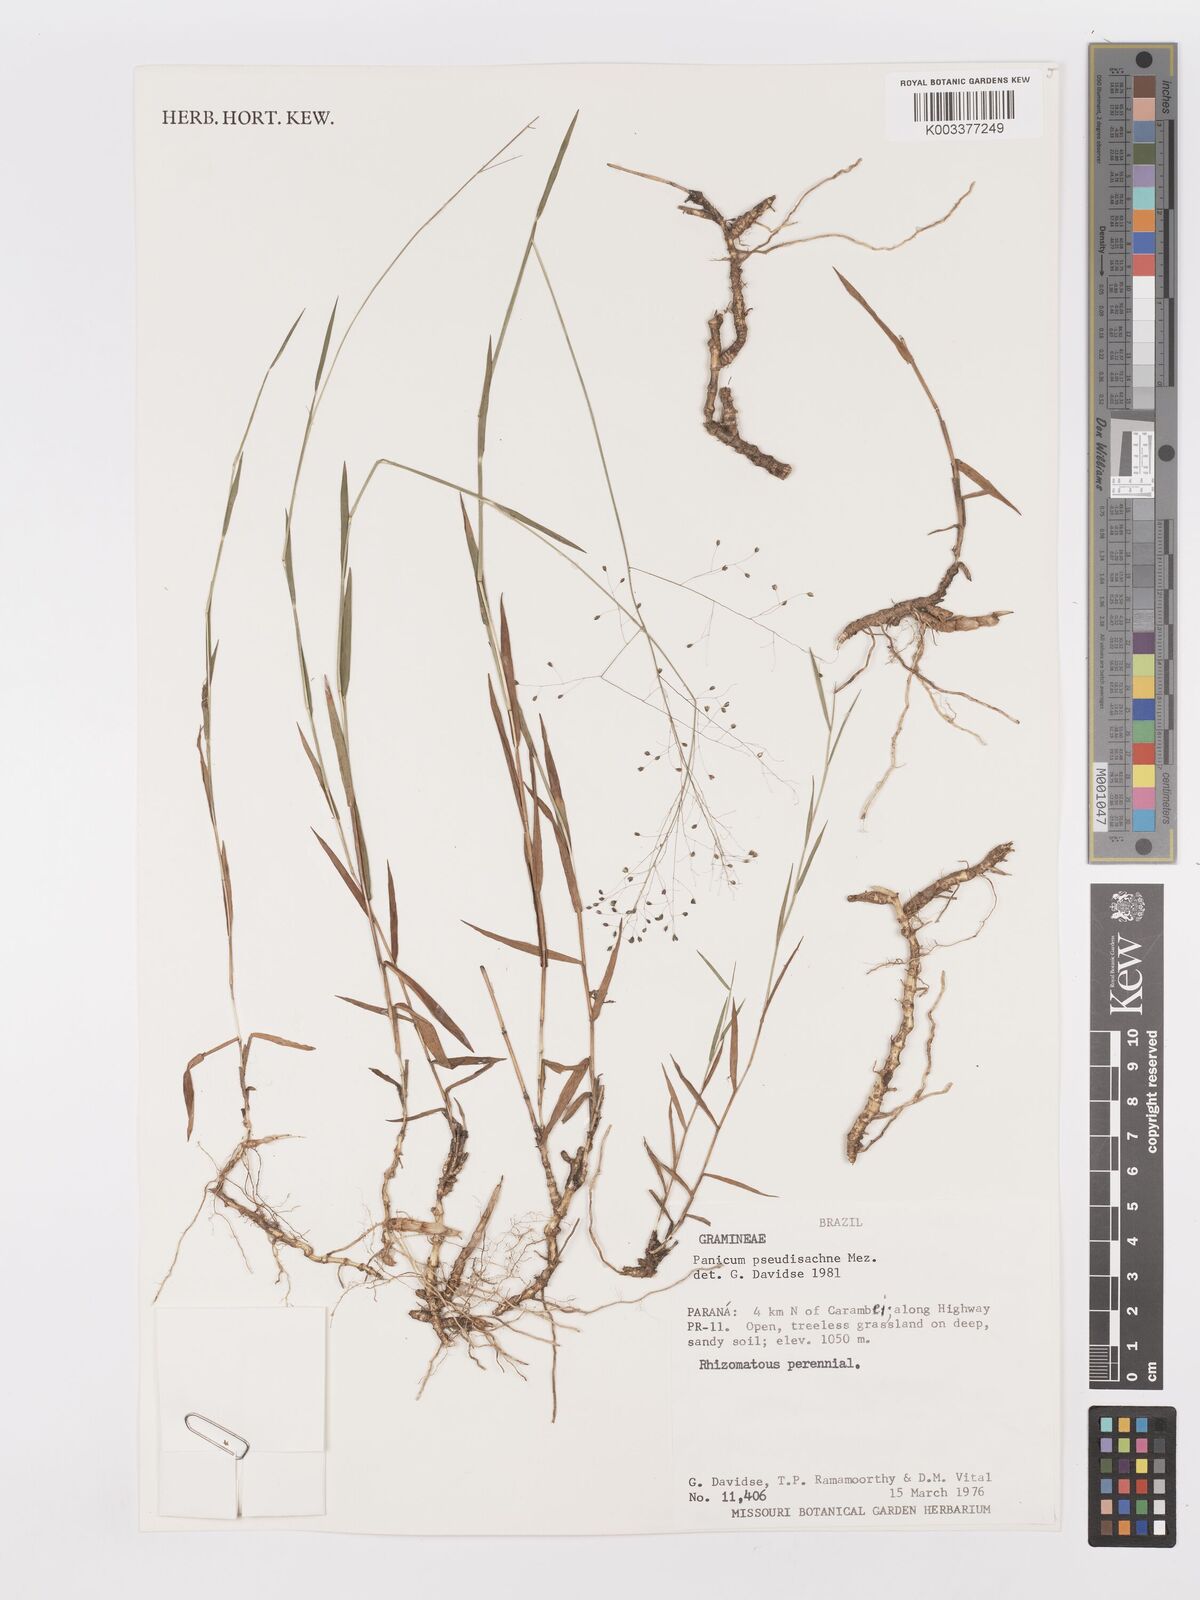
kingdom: Plantae
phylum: Tracheophyta
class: Liliopsida
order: Poales
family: Poaceae
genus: Trichanthecium
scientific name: Trichanthecium pseudisachne
